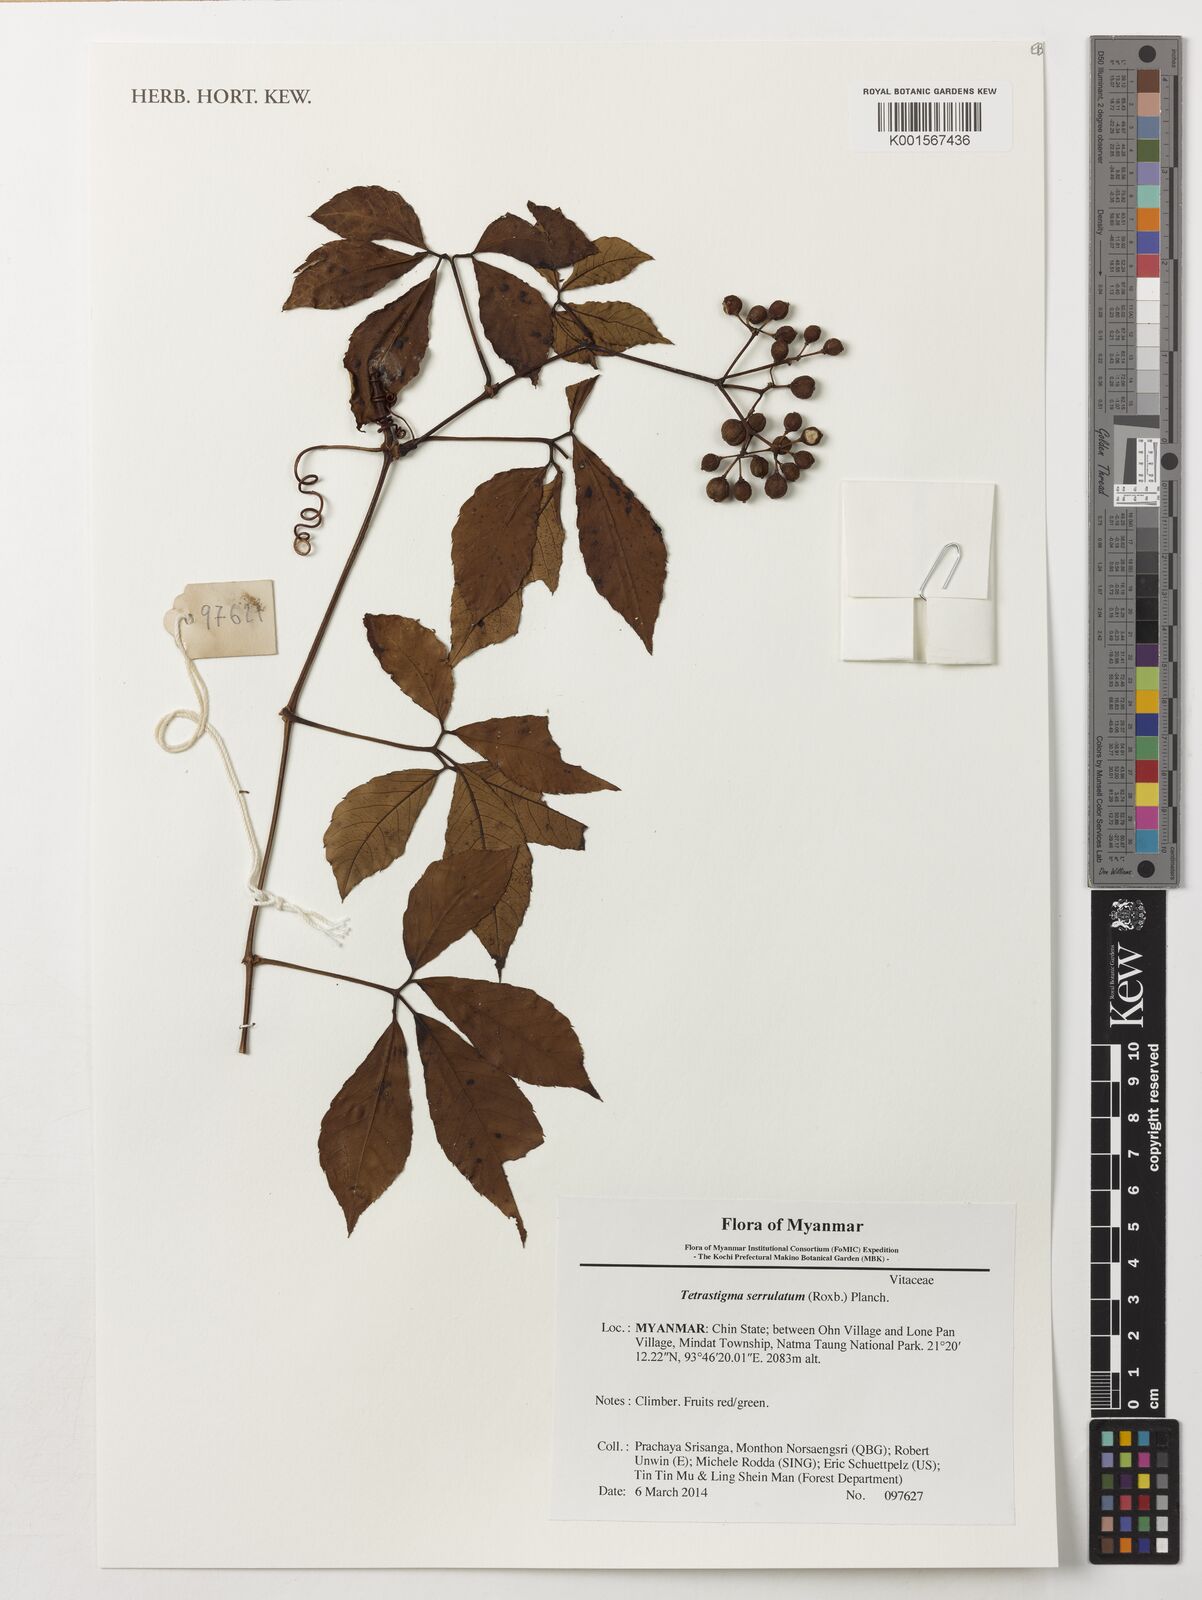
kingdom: Plantae
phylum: Tracheophyta
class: Magnoliopsida
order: Vitales
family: Vitaceae
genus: Tetrastigma
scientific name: Tetrastigma serrulatum
